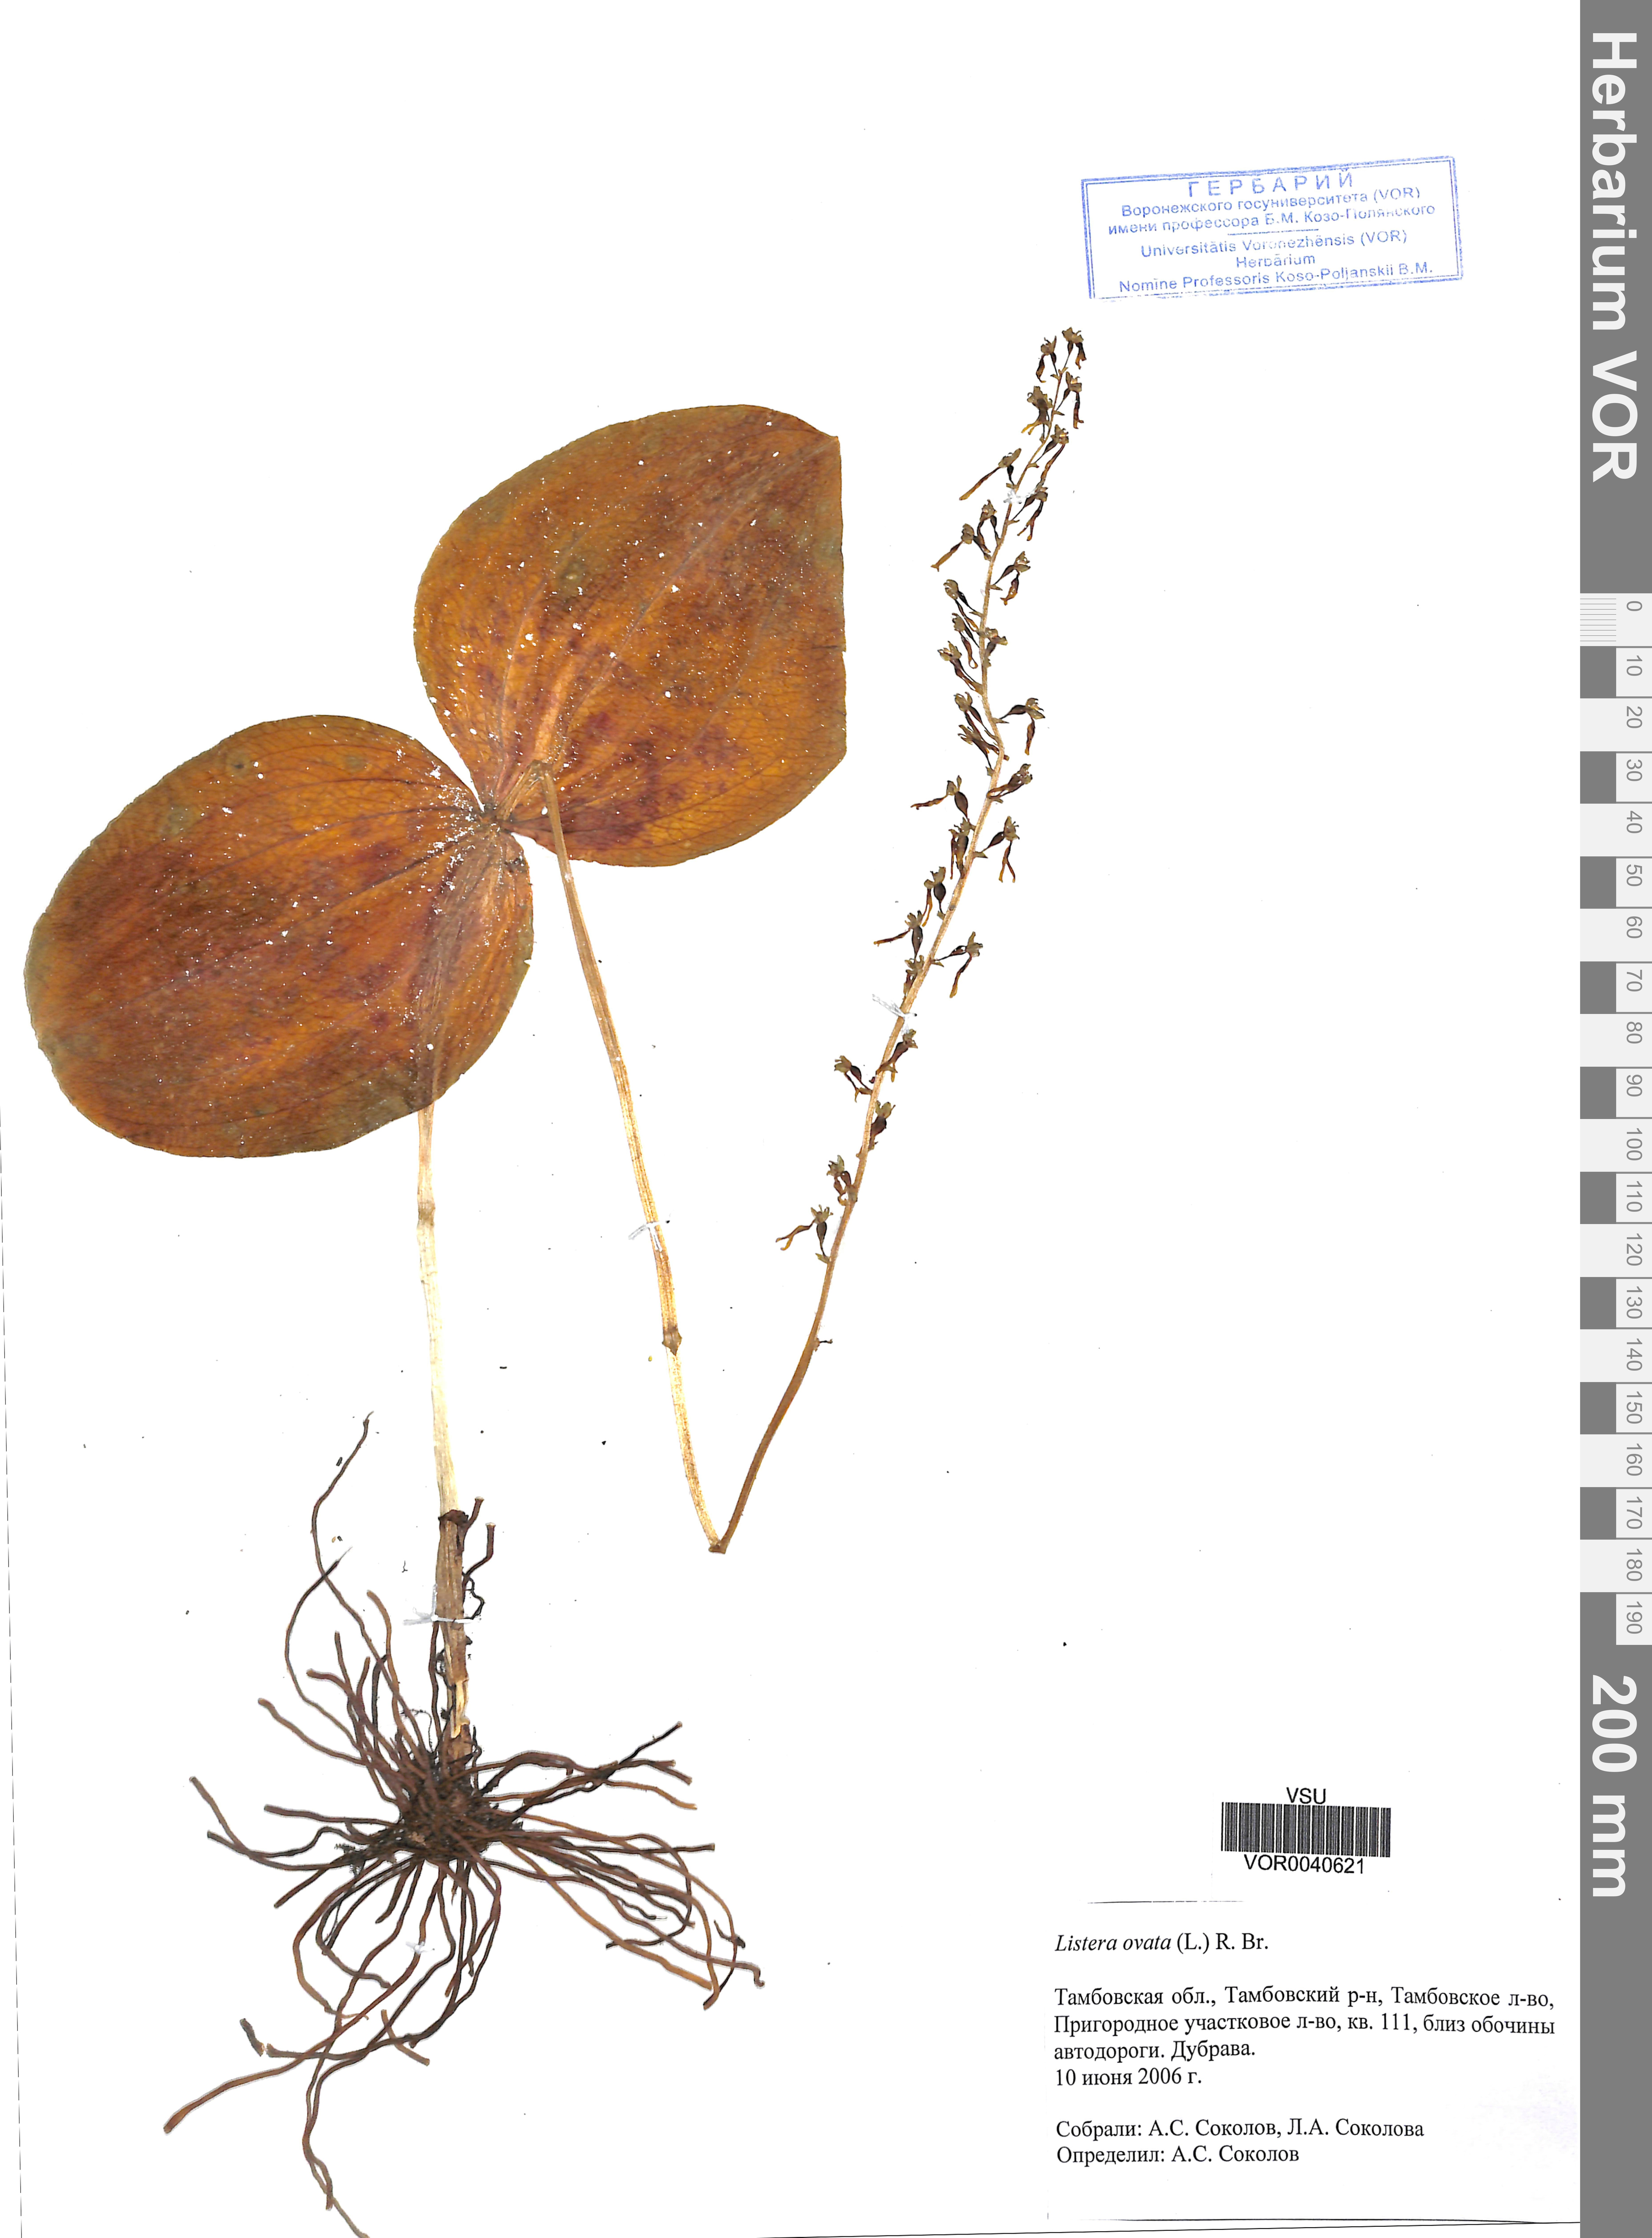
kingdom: Plantae
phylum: Tracheophyta
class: Liliopsida
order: Asparagales
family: Orchidaceae
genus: Neottia
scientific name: Neottia ovata
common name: Common twayblade
